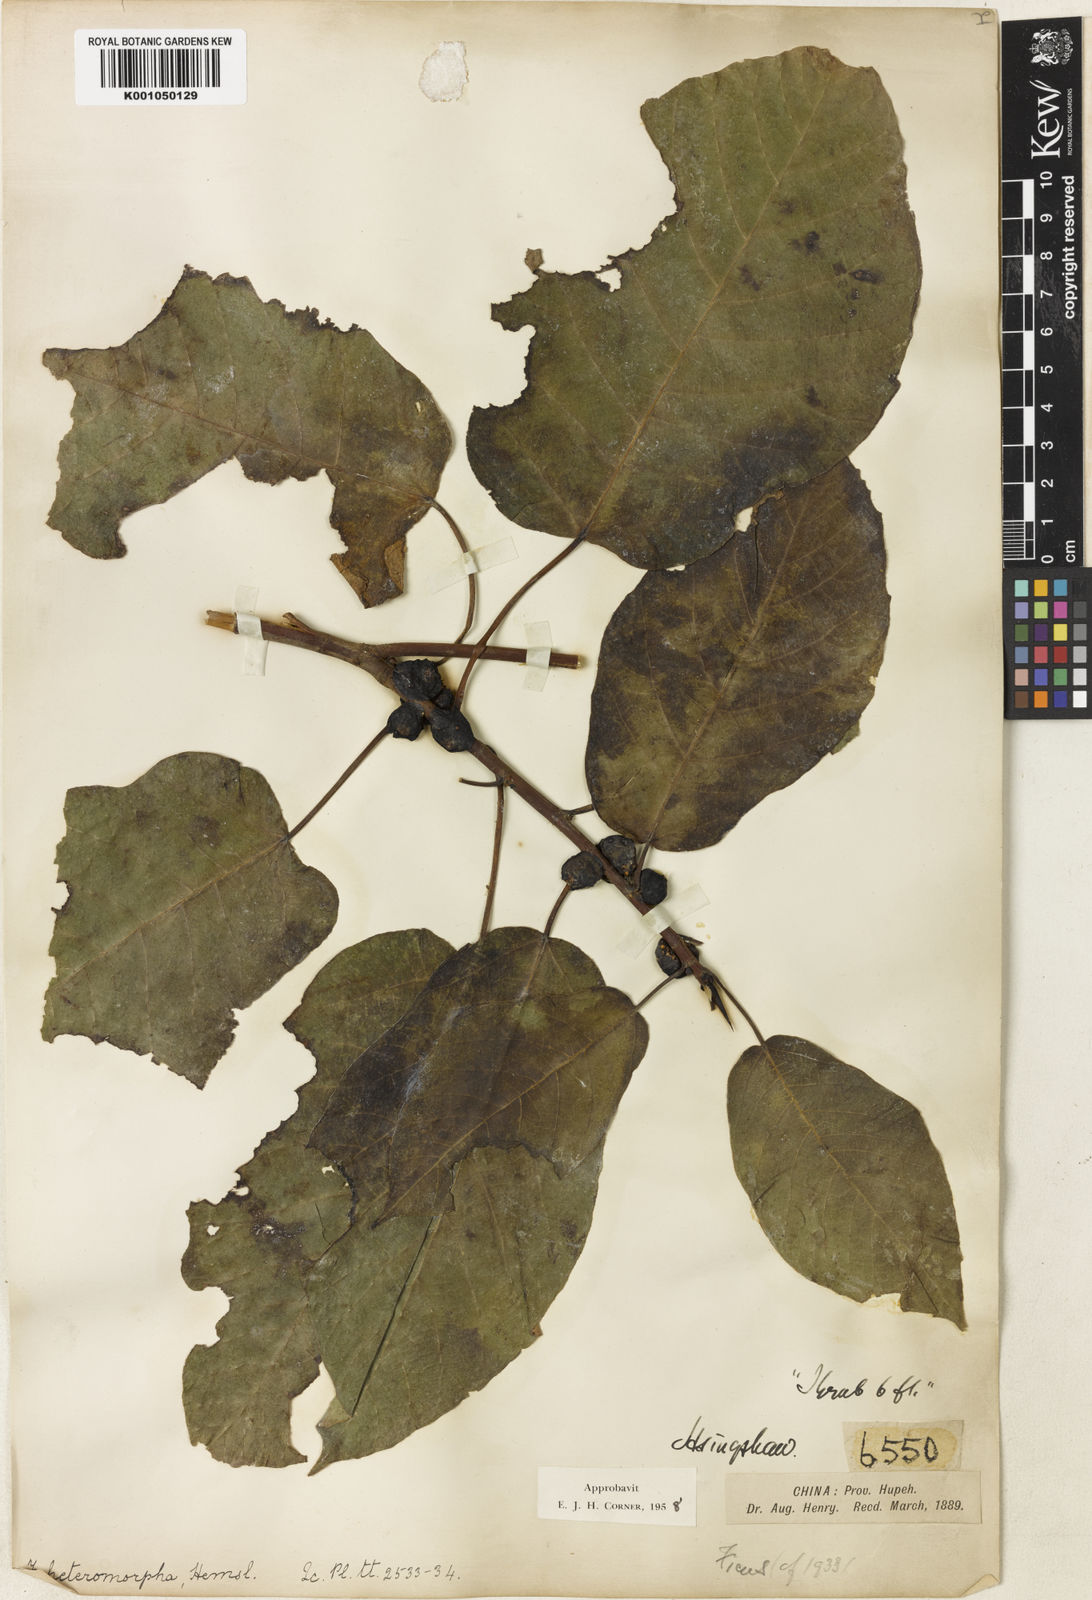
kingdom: Plantae
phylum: Tracheophyta
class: Magnoliopsida
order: Rosales
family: Moraceae
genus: Ficus
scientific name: Ficus heteromorpha
